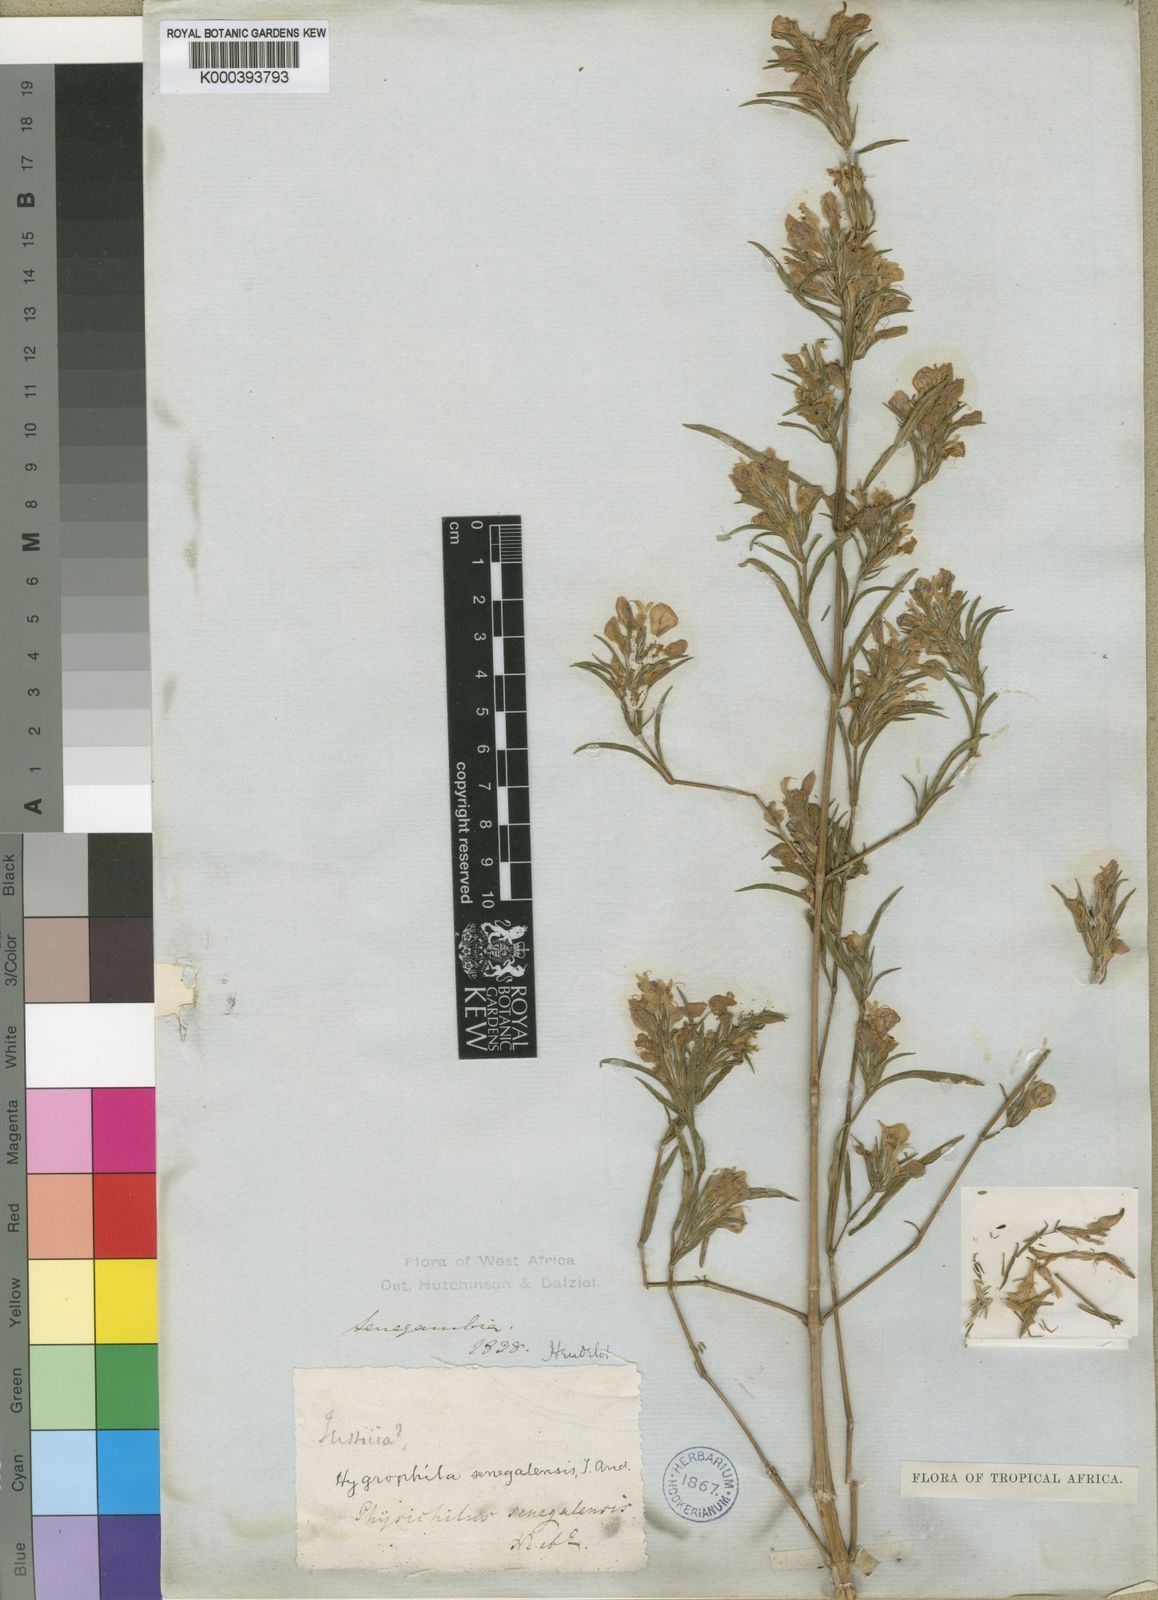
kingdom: Plantae
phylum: Tracheophyta
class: Magnoliopsida
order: Lamiales
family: Acanthaceae
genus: Hygrophila
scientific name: Hygrophila micrantha
